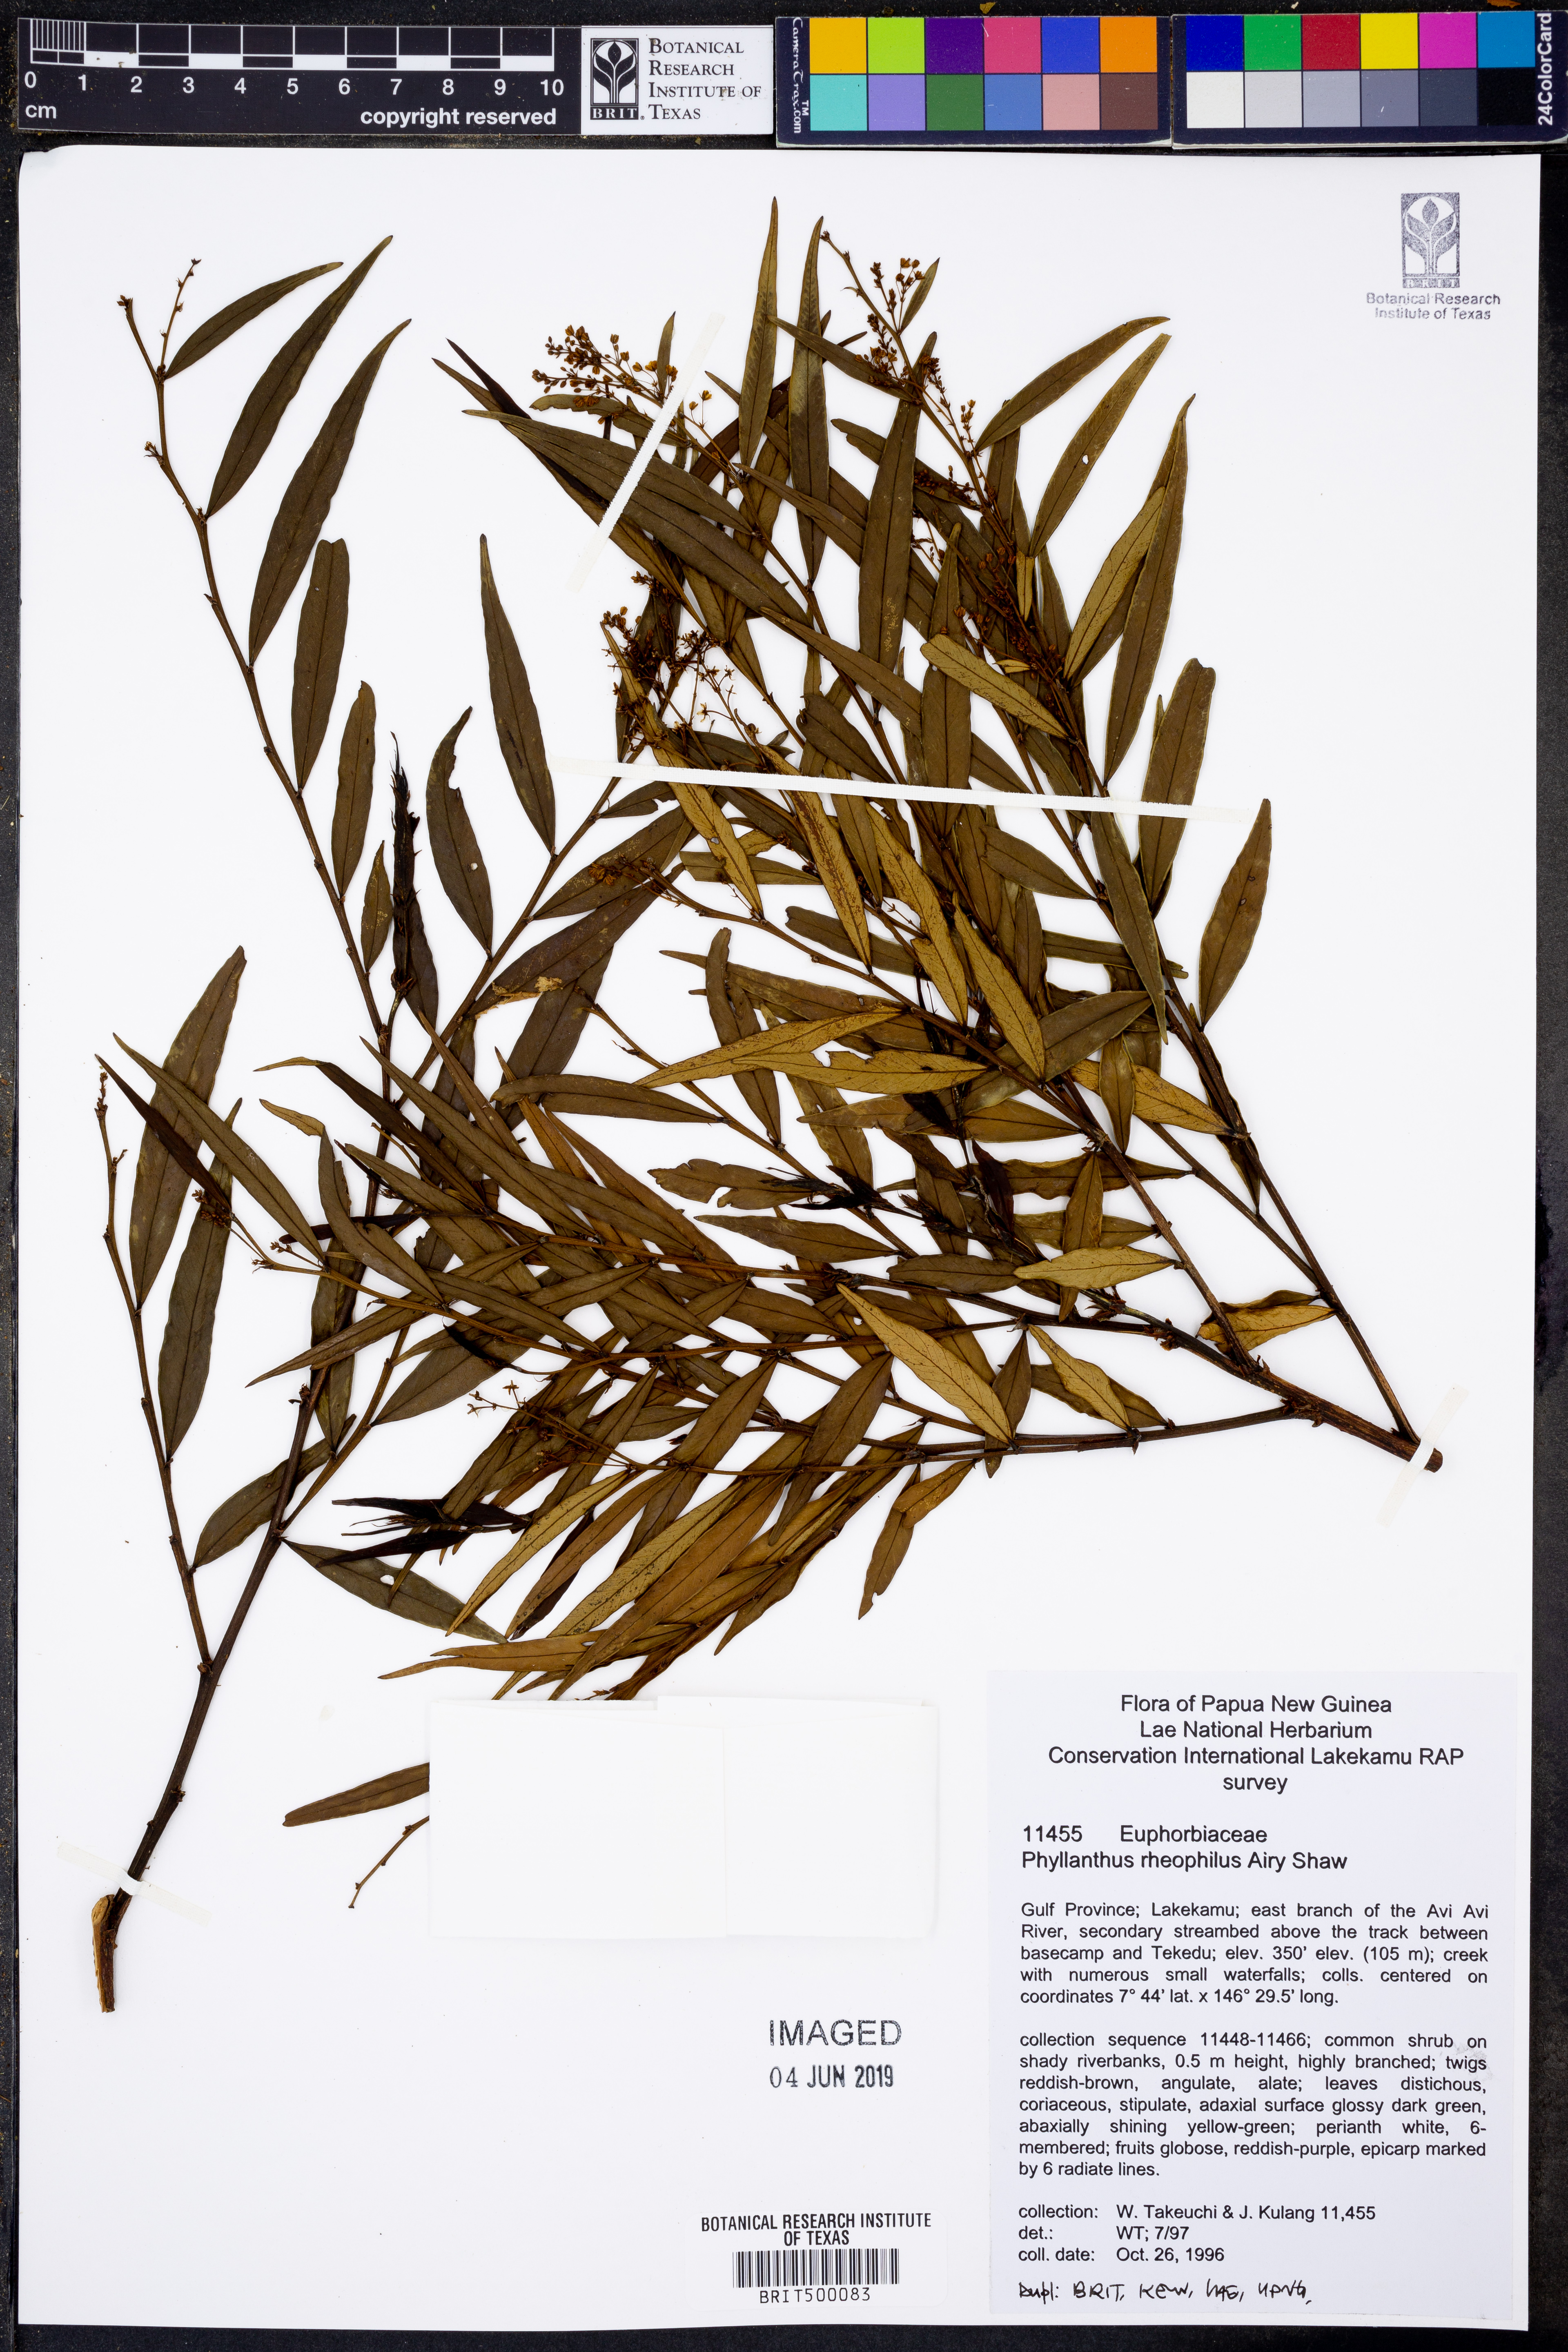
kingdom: Plantae
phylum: Tracheophyta
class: Magnoliopsida
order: Malpighiales
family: Phyllanthaceae
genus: Phyllanthus
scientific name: Phyllanthus rheophilus
